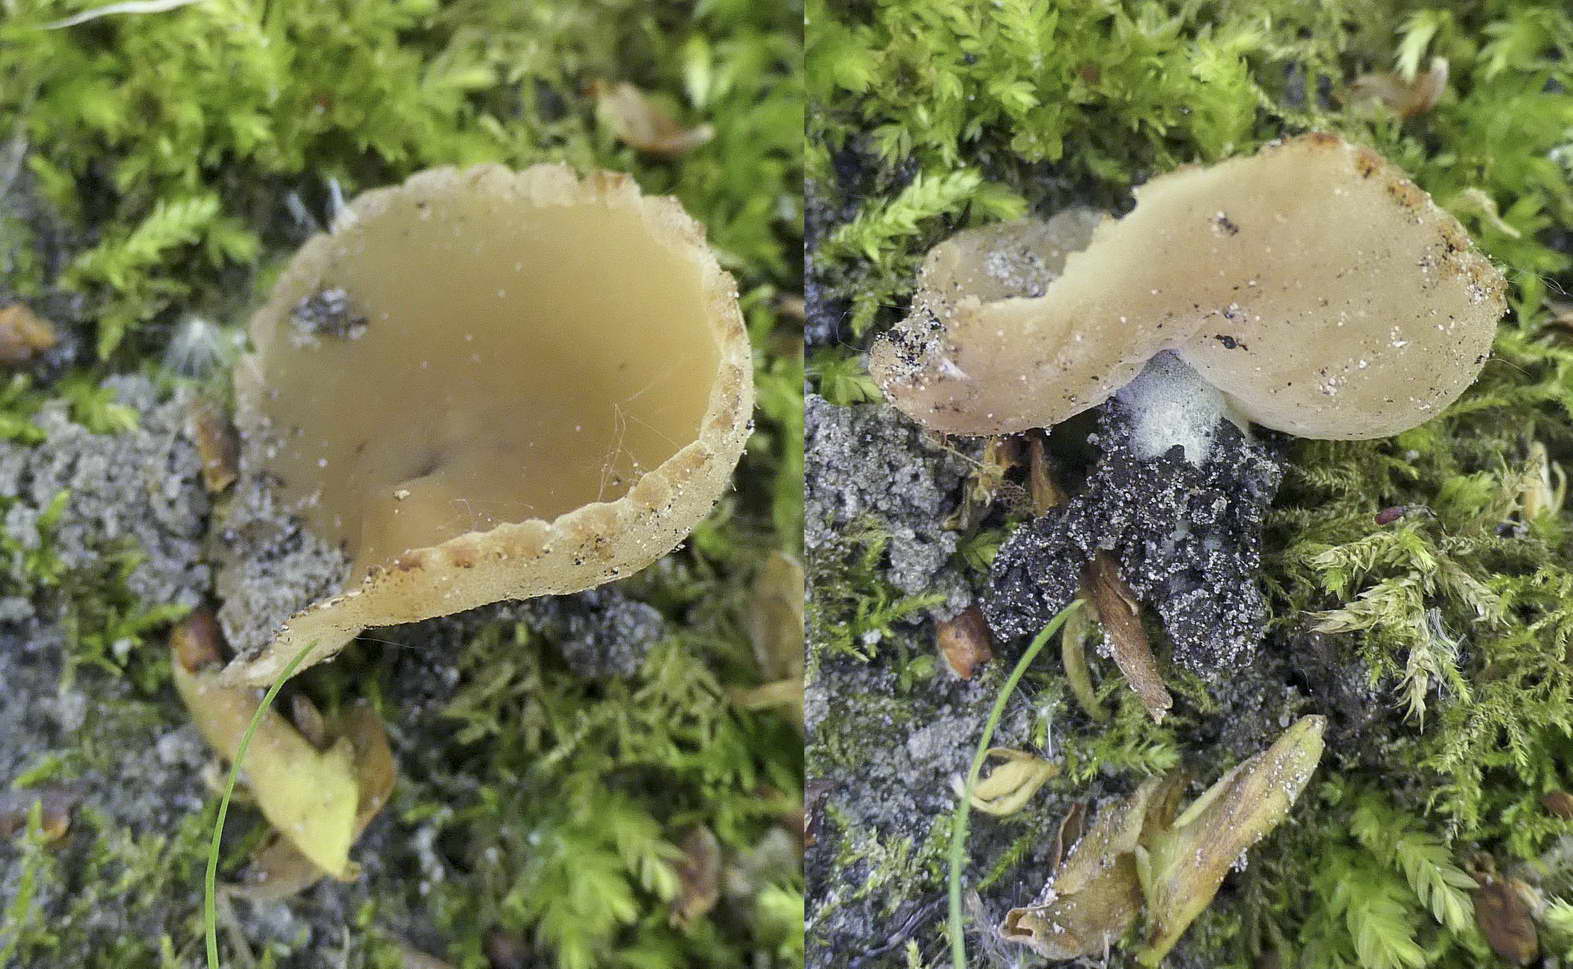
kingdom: Fungi
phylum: Ascomycota
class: Pezizomycetes
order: Pezizales
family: Pezizaceae
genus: Peziza
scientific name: Peziza varia
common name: Ved-bægersvamp
